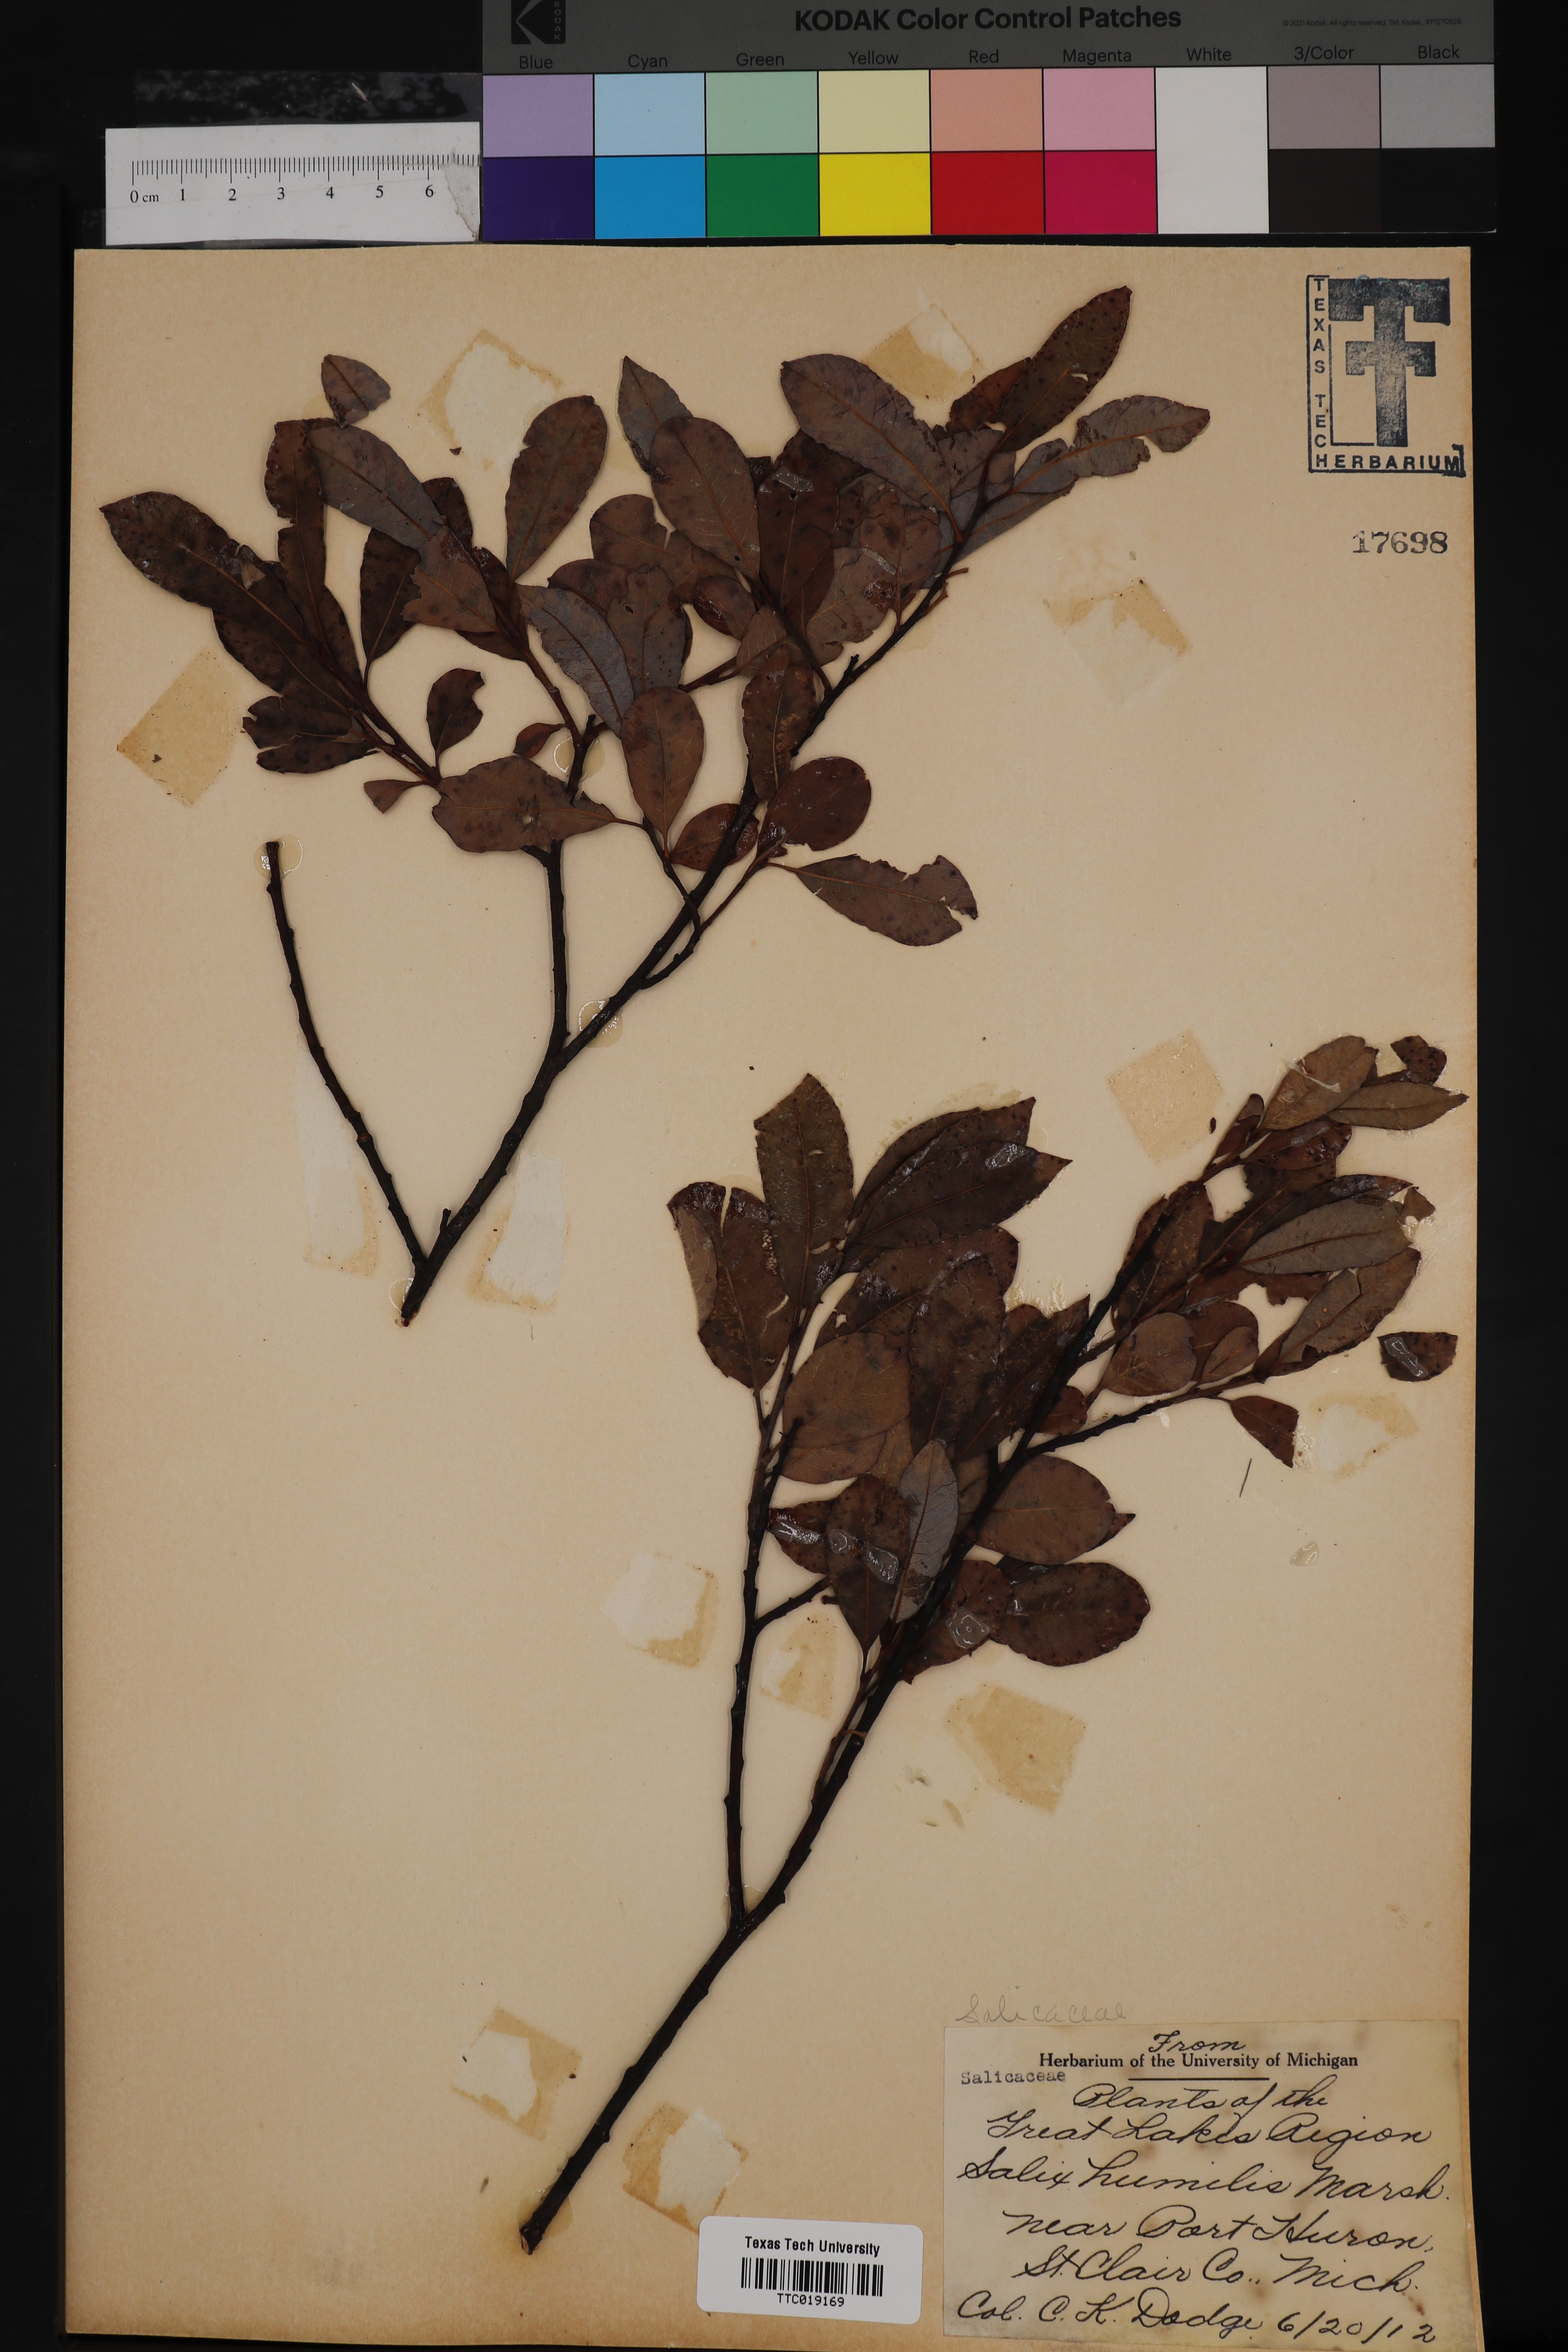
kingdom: Plantae
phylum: Tracheophyta
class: Magnoliopsida
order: Malpighiales
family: Salicaceae
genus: Salix
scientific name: Salix humilis
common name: Prairie willow
